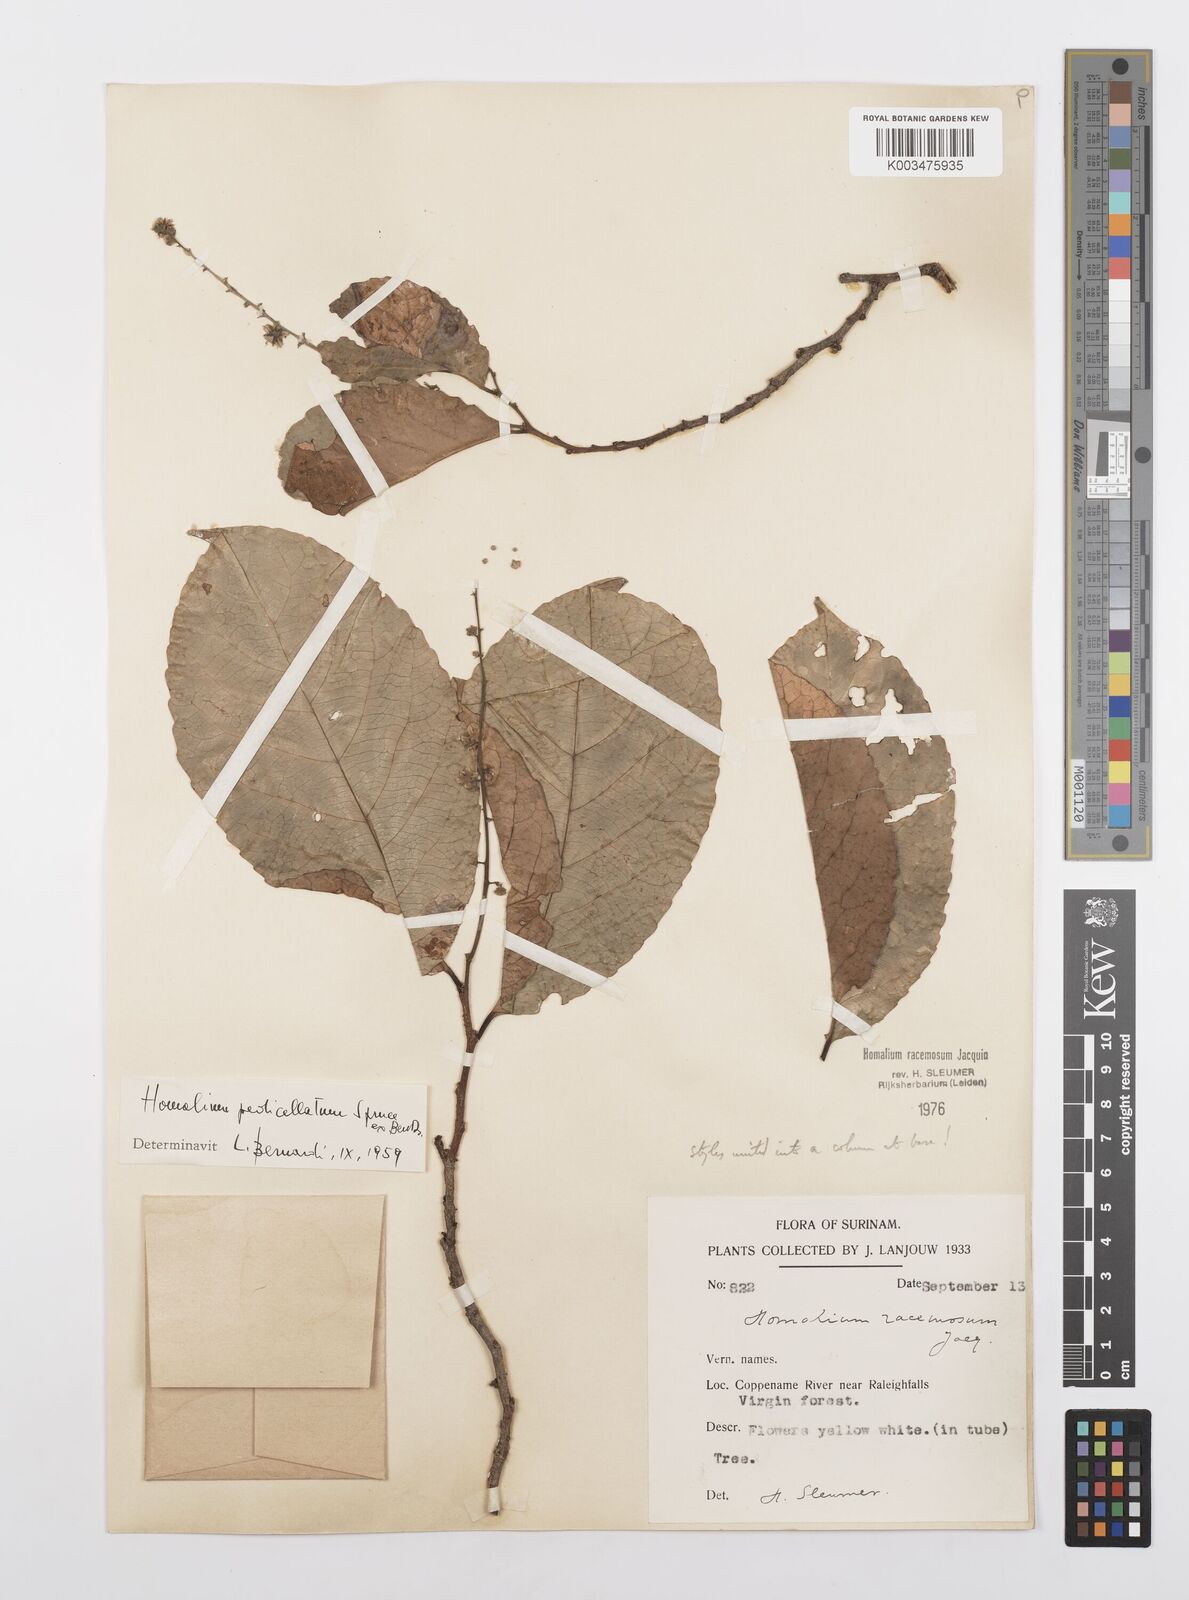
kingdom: Plantae
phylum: Tracheophyta
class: Magnoliopsida
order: Malpighiales
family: Salicaceae
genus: Homalium
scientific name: Homalium racemosum
